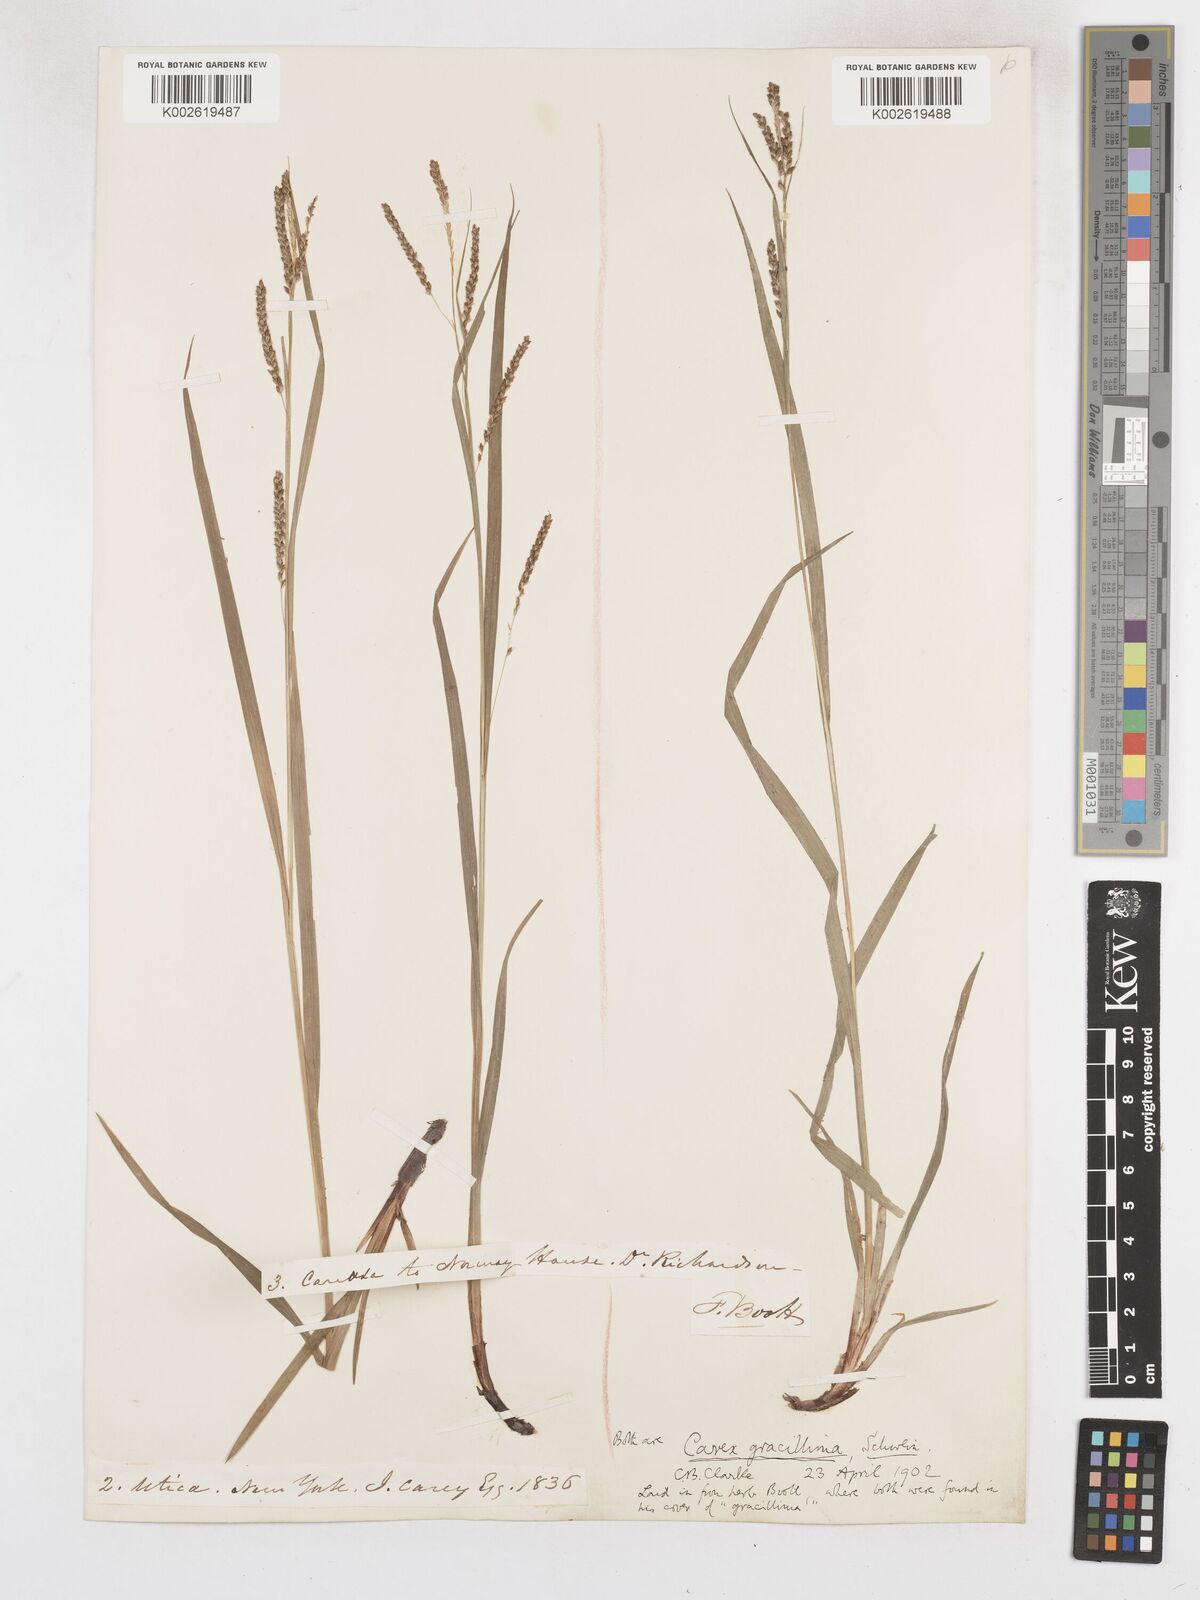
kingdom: Plantae
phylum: Tracheophyta
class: Liliopsida
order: Poales
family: Cyperaceae
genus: Carex
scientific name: Carex gracillima
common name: Graceful sedge
